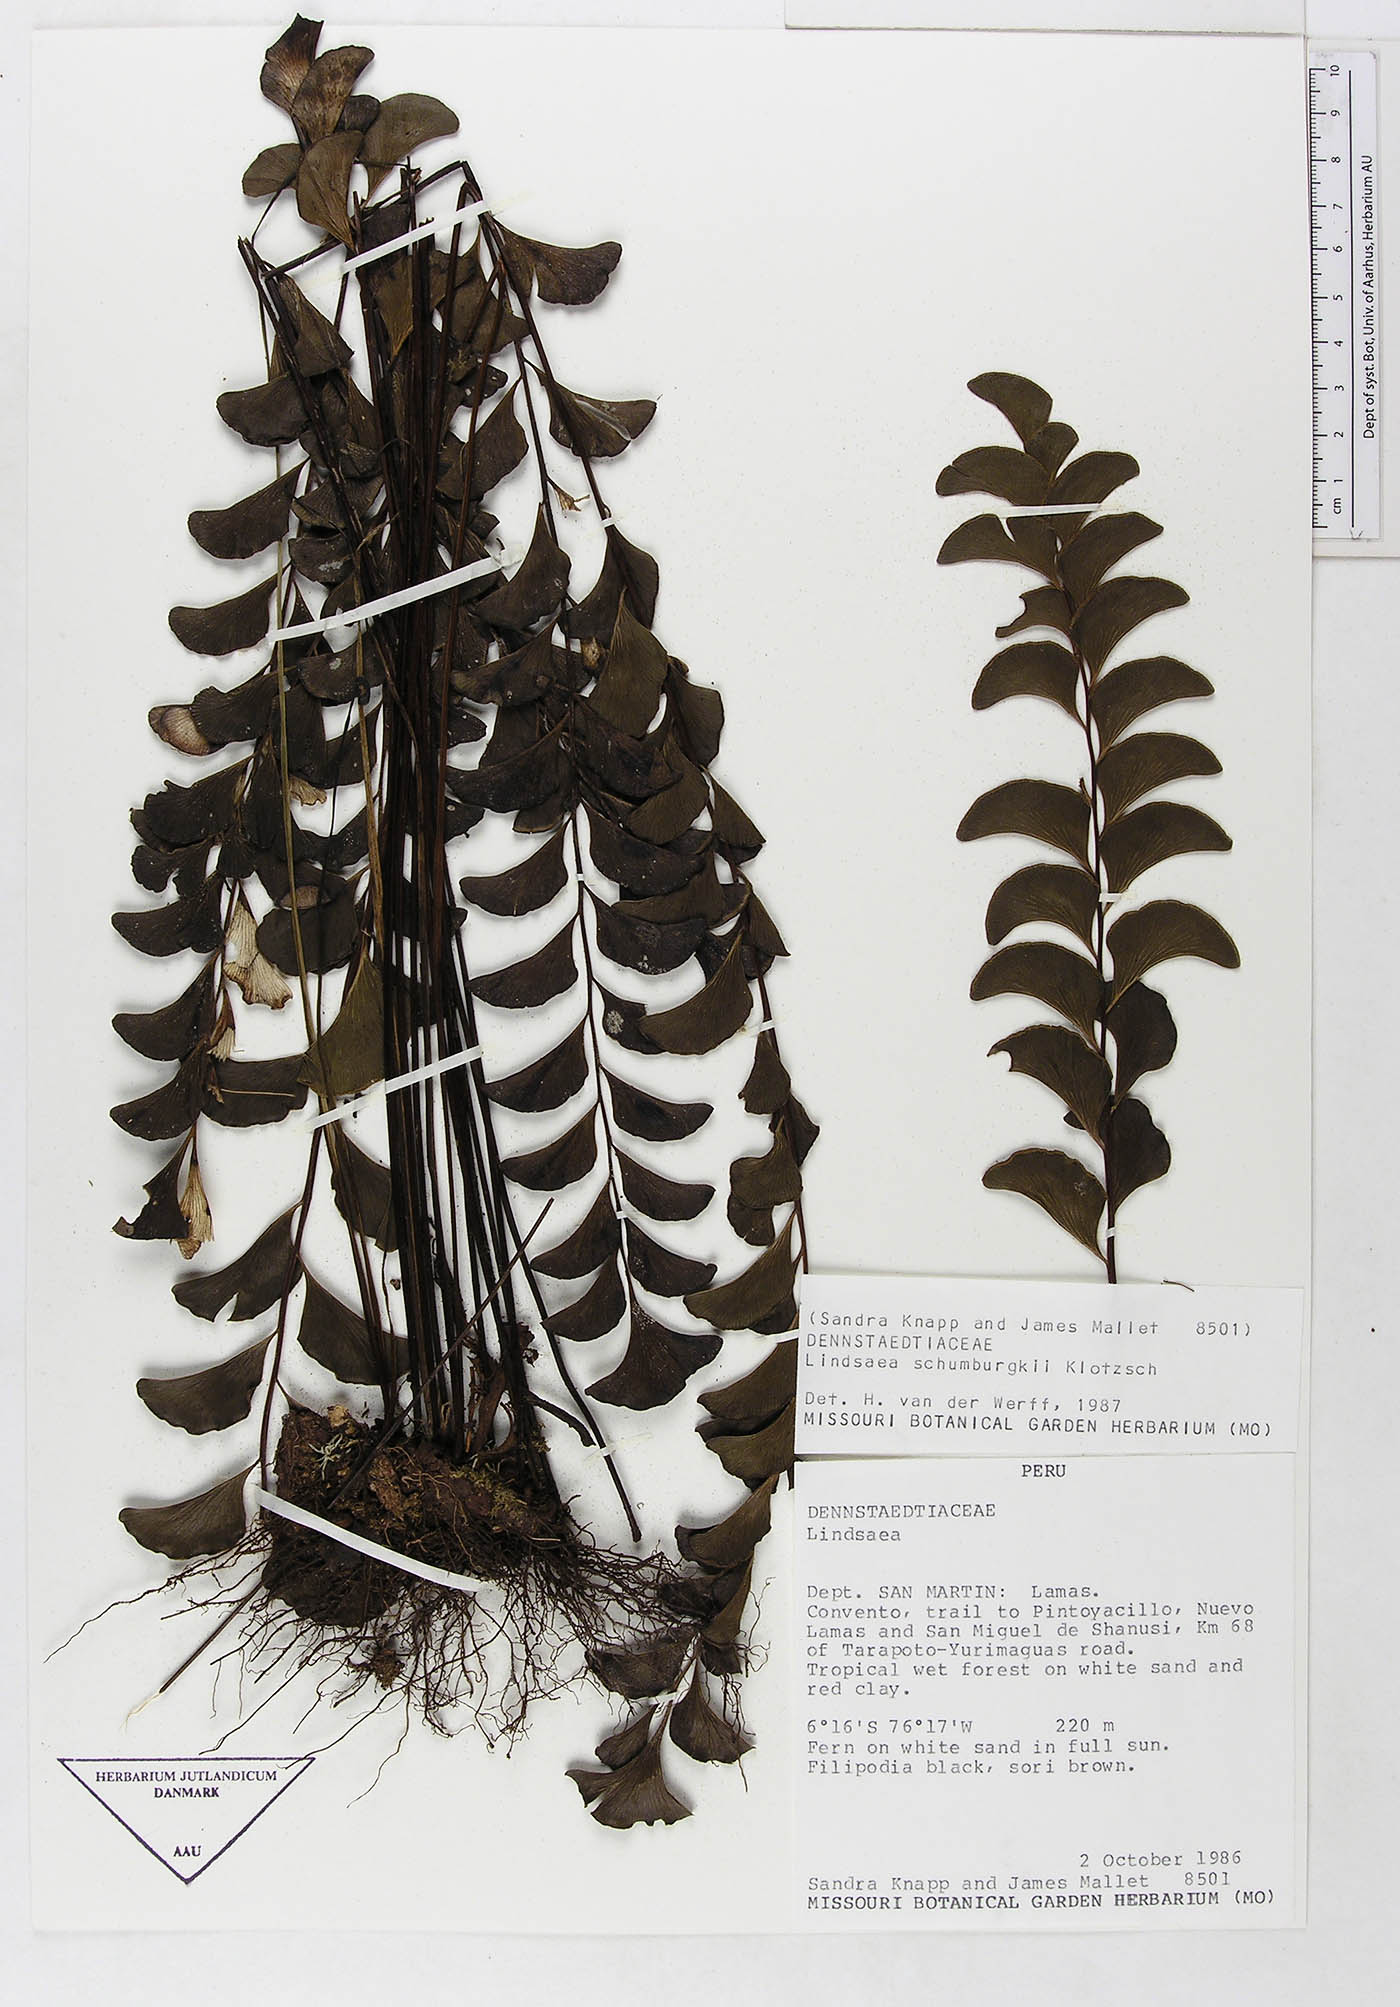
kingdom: Plantae
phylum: Tracheophyta
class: Polypodiopsida
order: Polypodiales
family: Dennstaedtiaceae
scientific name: Dennstaedtiaceae
